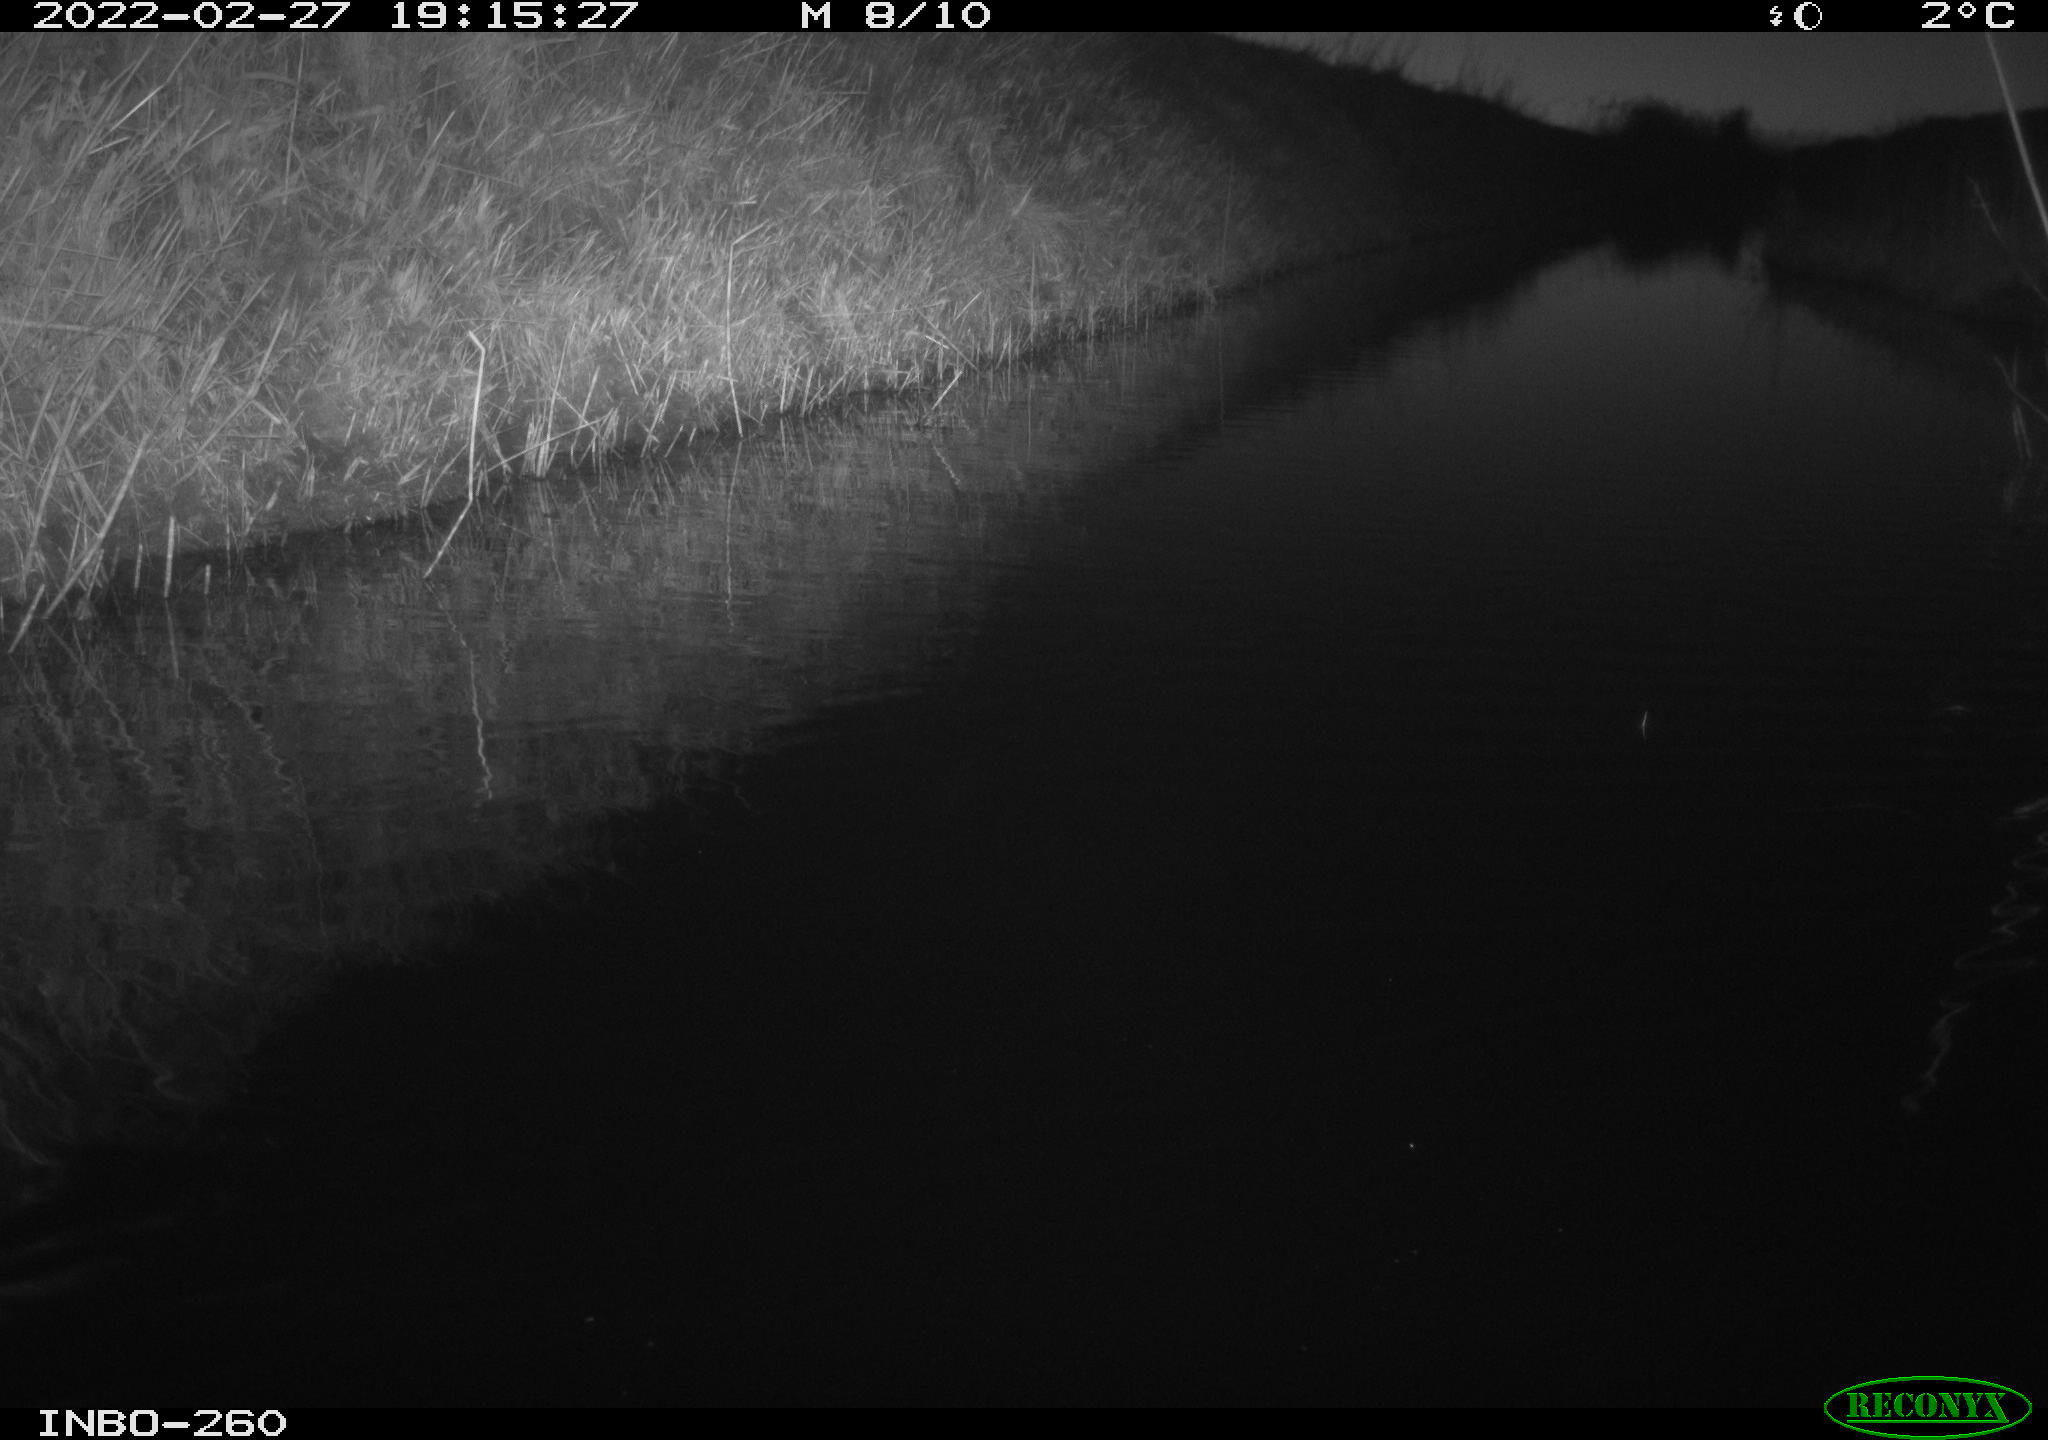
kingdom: Animalia
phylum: Chordata
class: Aves
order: Gruiformes
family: Rallidae
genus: Gallinula
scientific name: Gallinula chloropus
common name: Common moorhen
